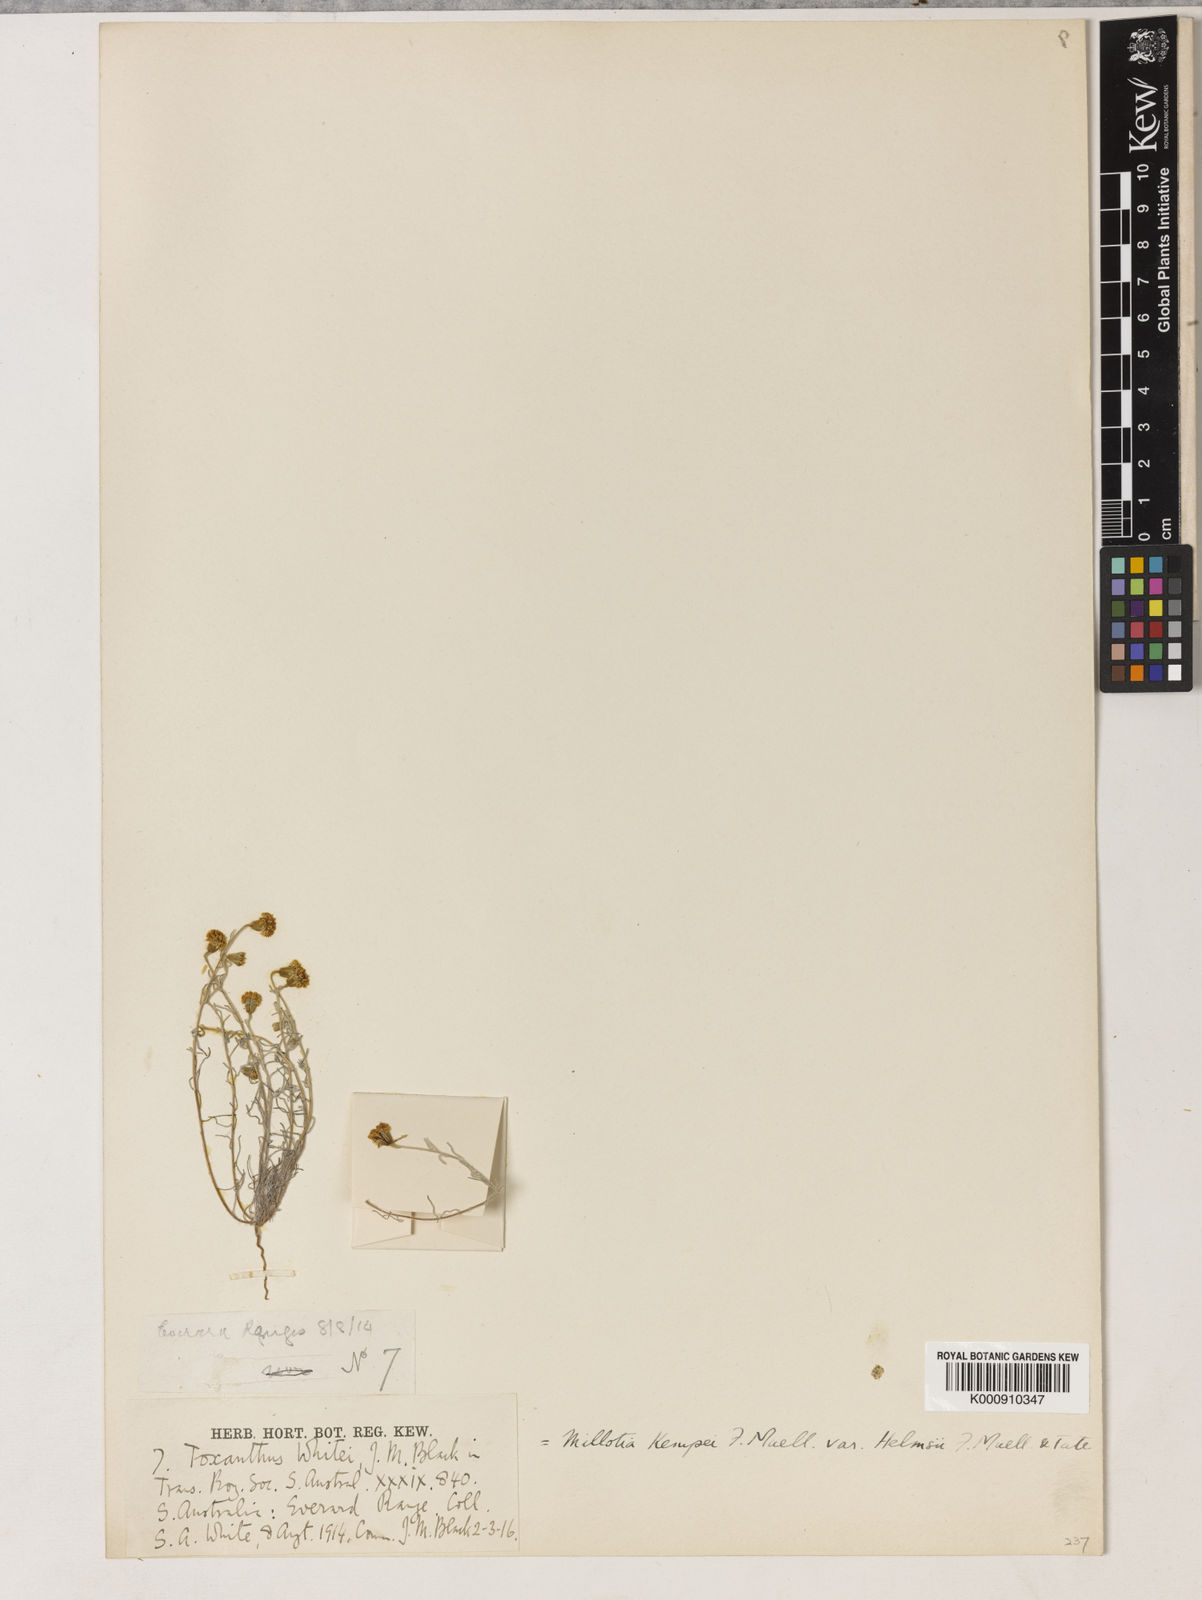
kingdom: Plantae
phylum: Tracheophyta
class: Magnoliopsida
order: Asterales
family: Asteraceae
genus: Millotia
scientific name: Millotia greevesii
